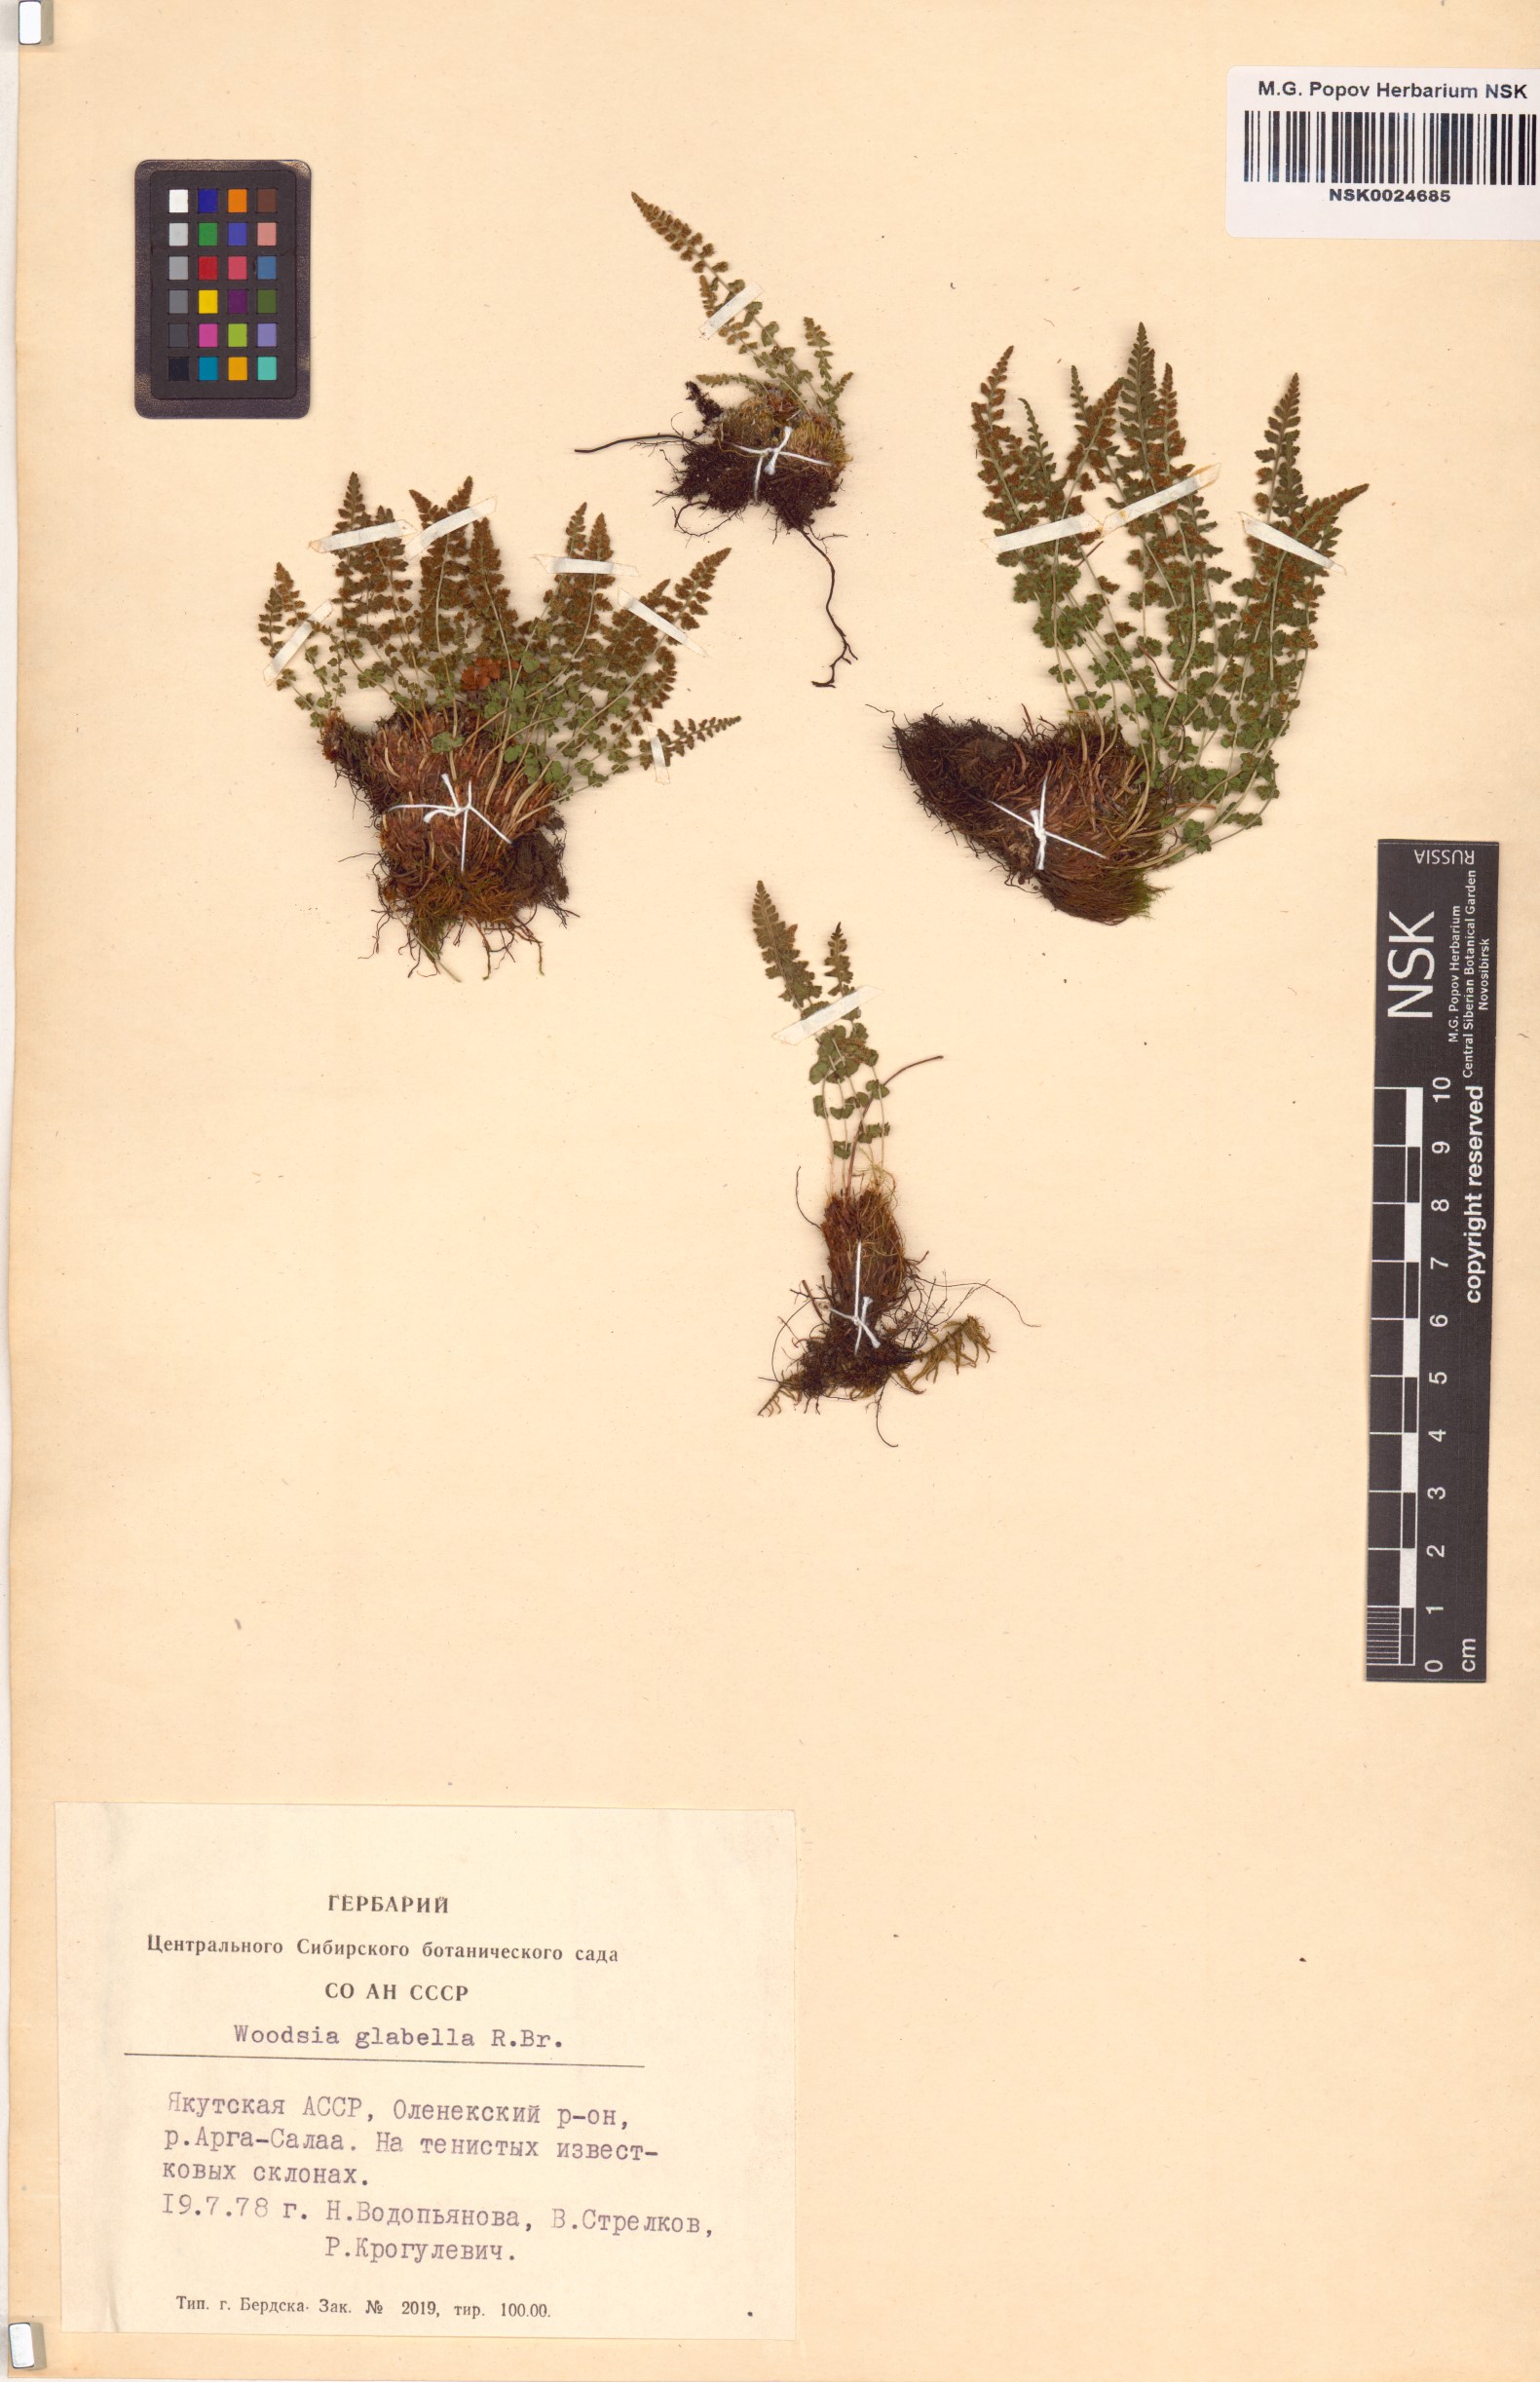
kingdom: Plantae
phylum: Tracheophyta
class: Polypodiopsida
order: Polypodiales
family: Woodsiaceae
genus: Woodsia
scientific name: Woodsia glabella
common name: Smooth woodsia
